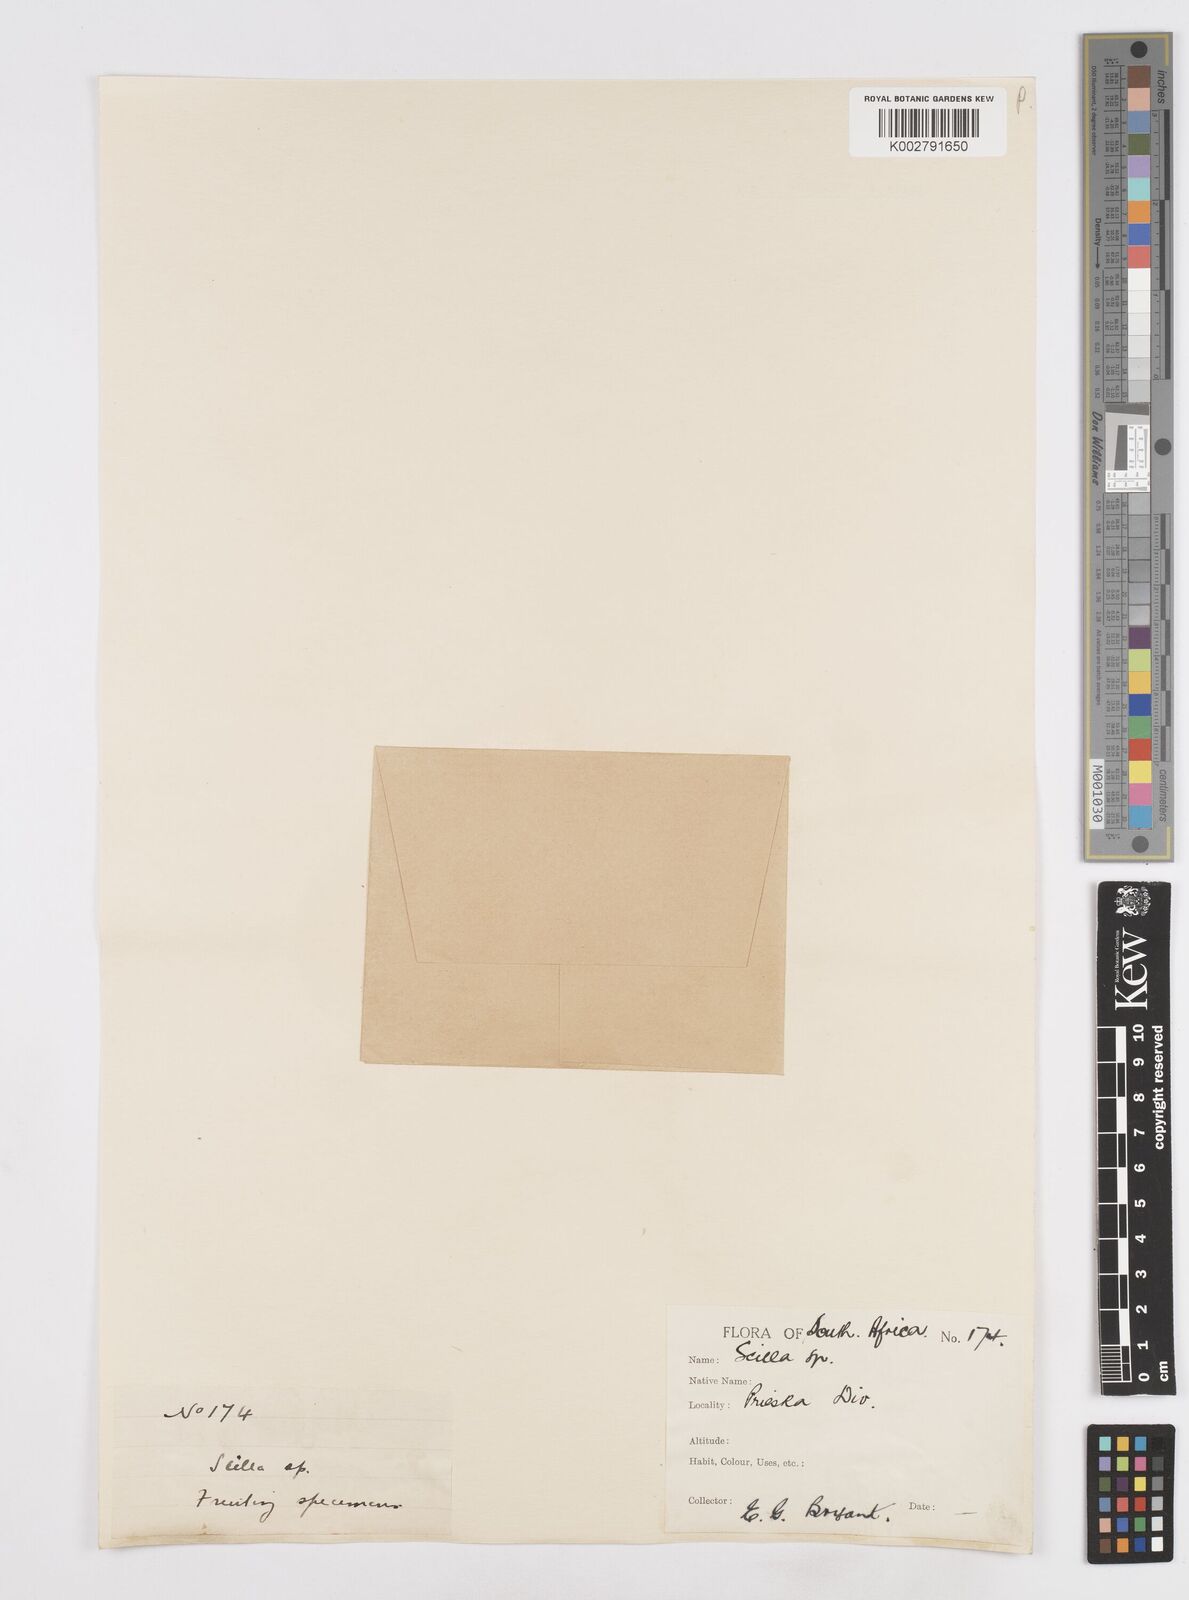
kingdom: Plantae
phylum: Tracheophyta
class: Liliopsida
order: Asparagales
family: Asparagaceae
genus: Scilla
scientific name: Scilla
